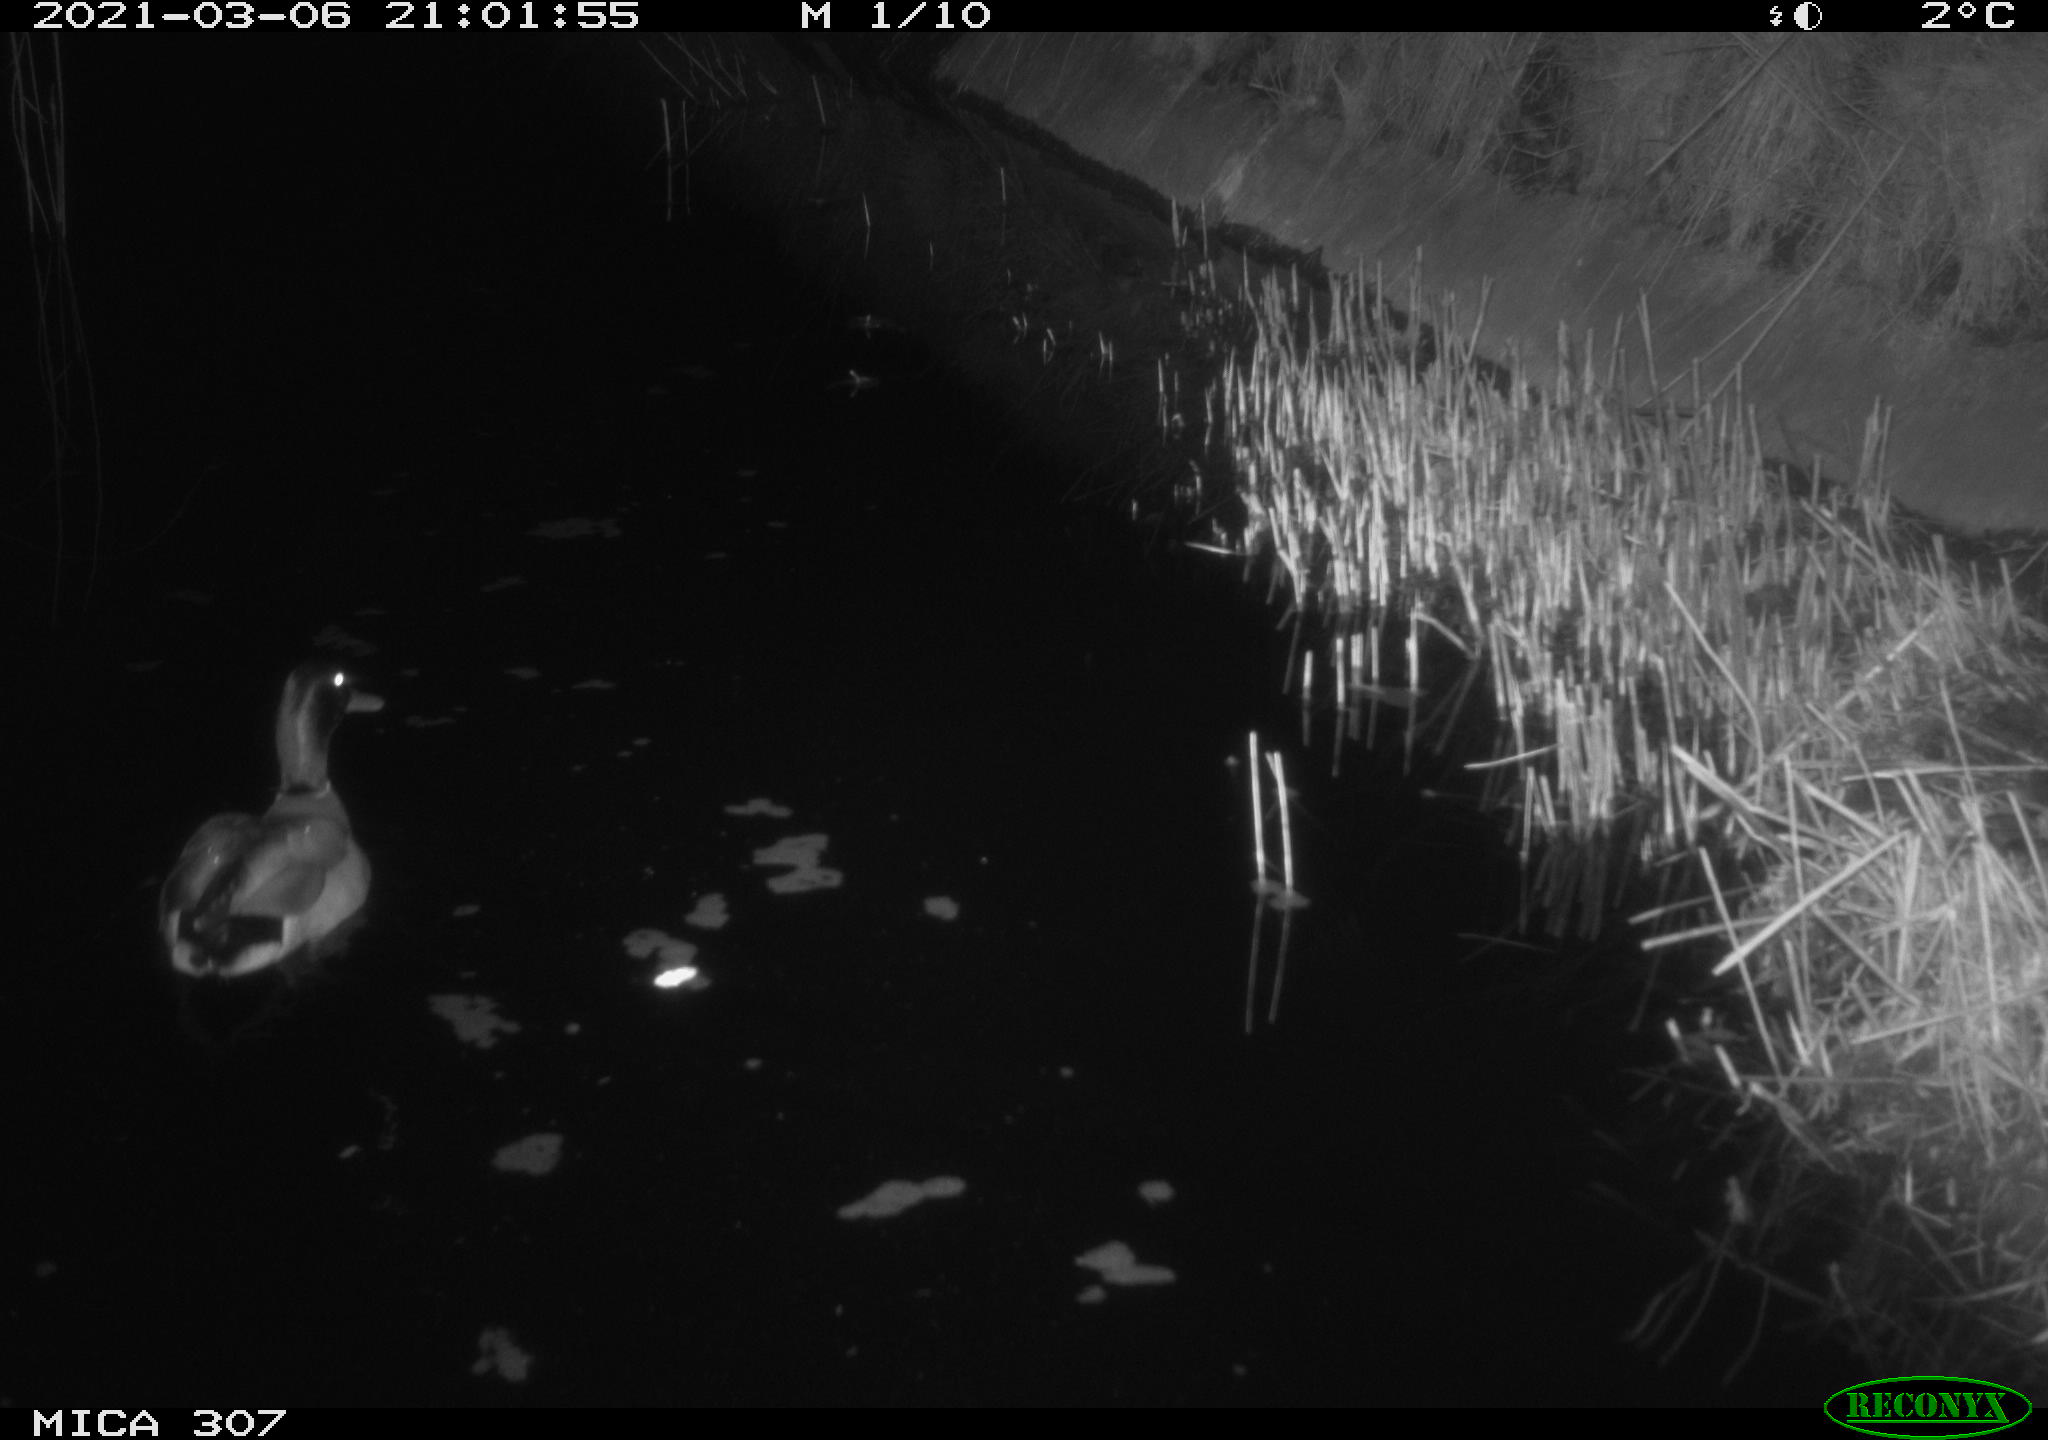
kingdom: Animalia
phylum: Chordata
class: Aves
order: Anseriformes
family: Anatidae
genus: Anas
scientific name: Anas platyrhynchos
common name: Mallard
